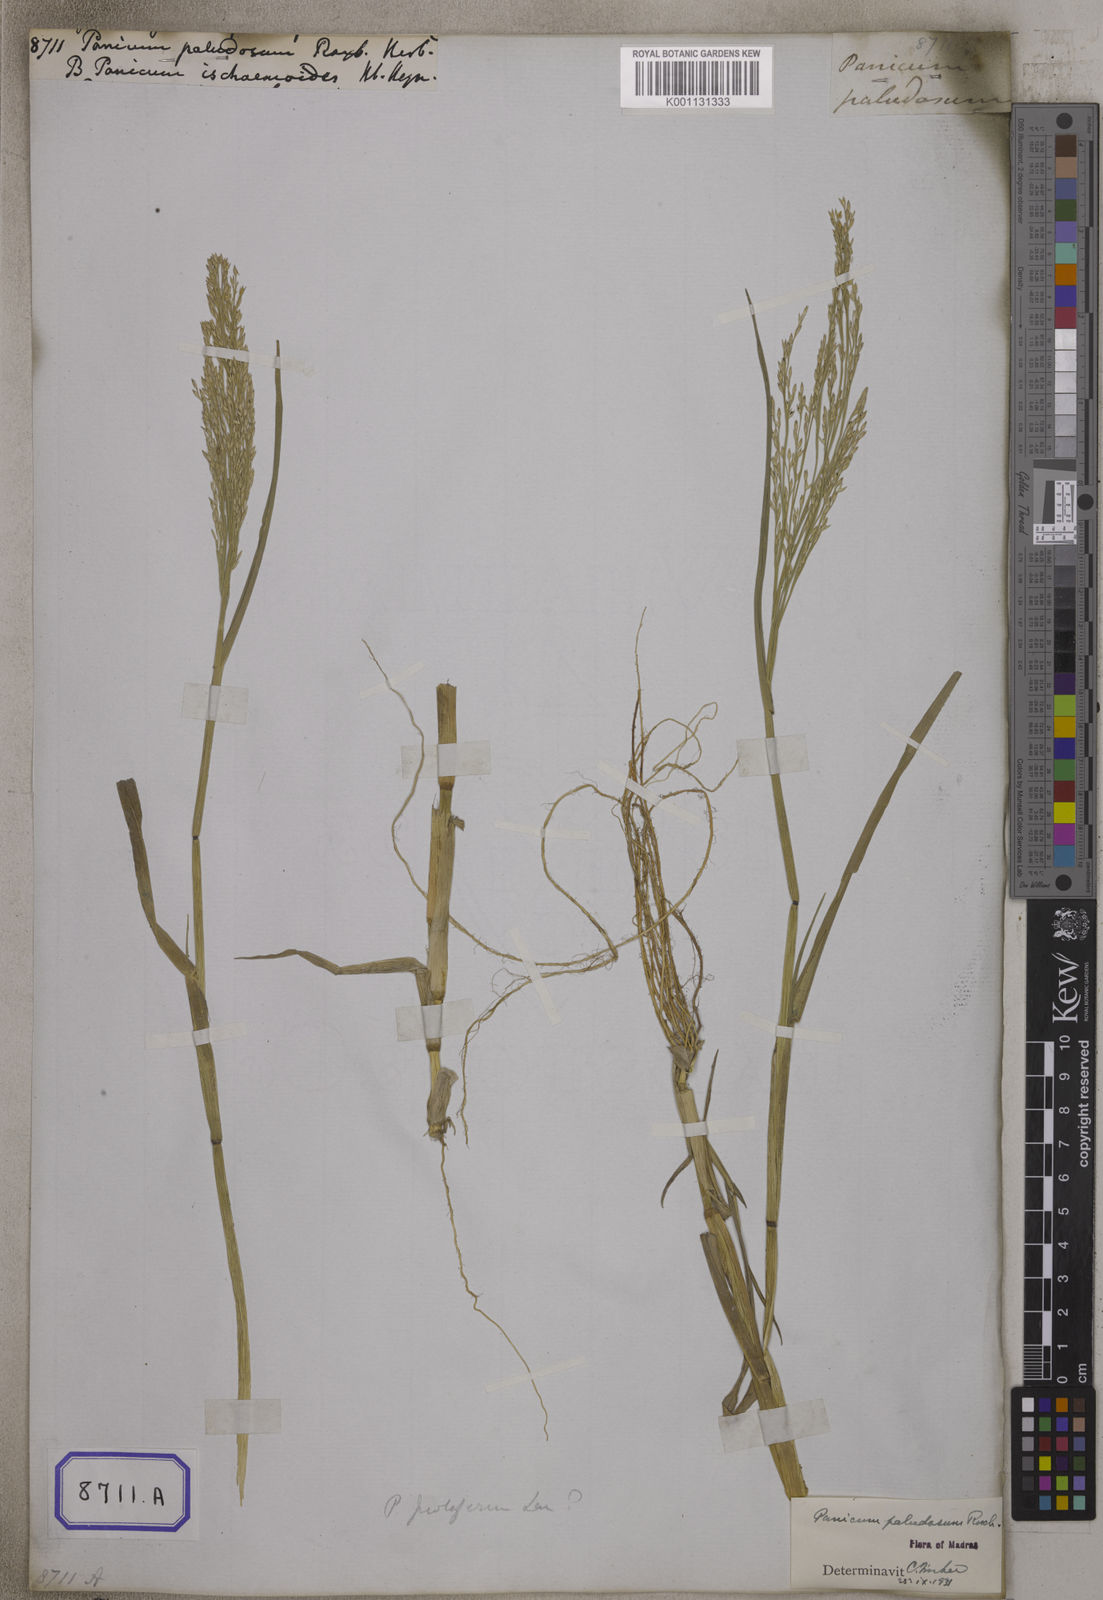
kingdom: Plantae
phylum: Tracheophyta
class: Liliopsida
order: Poales
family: Poaceae
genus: Louisiella
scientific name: Louisiella paludosa
